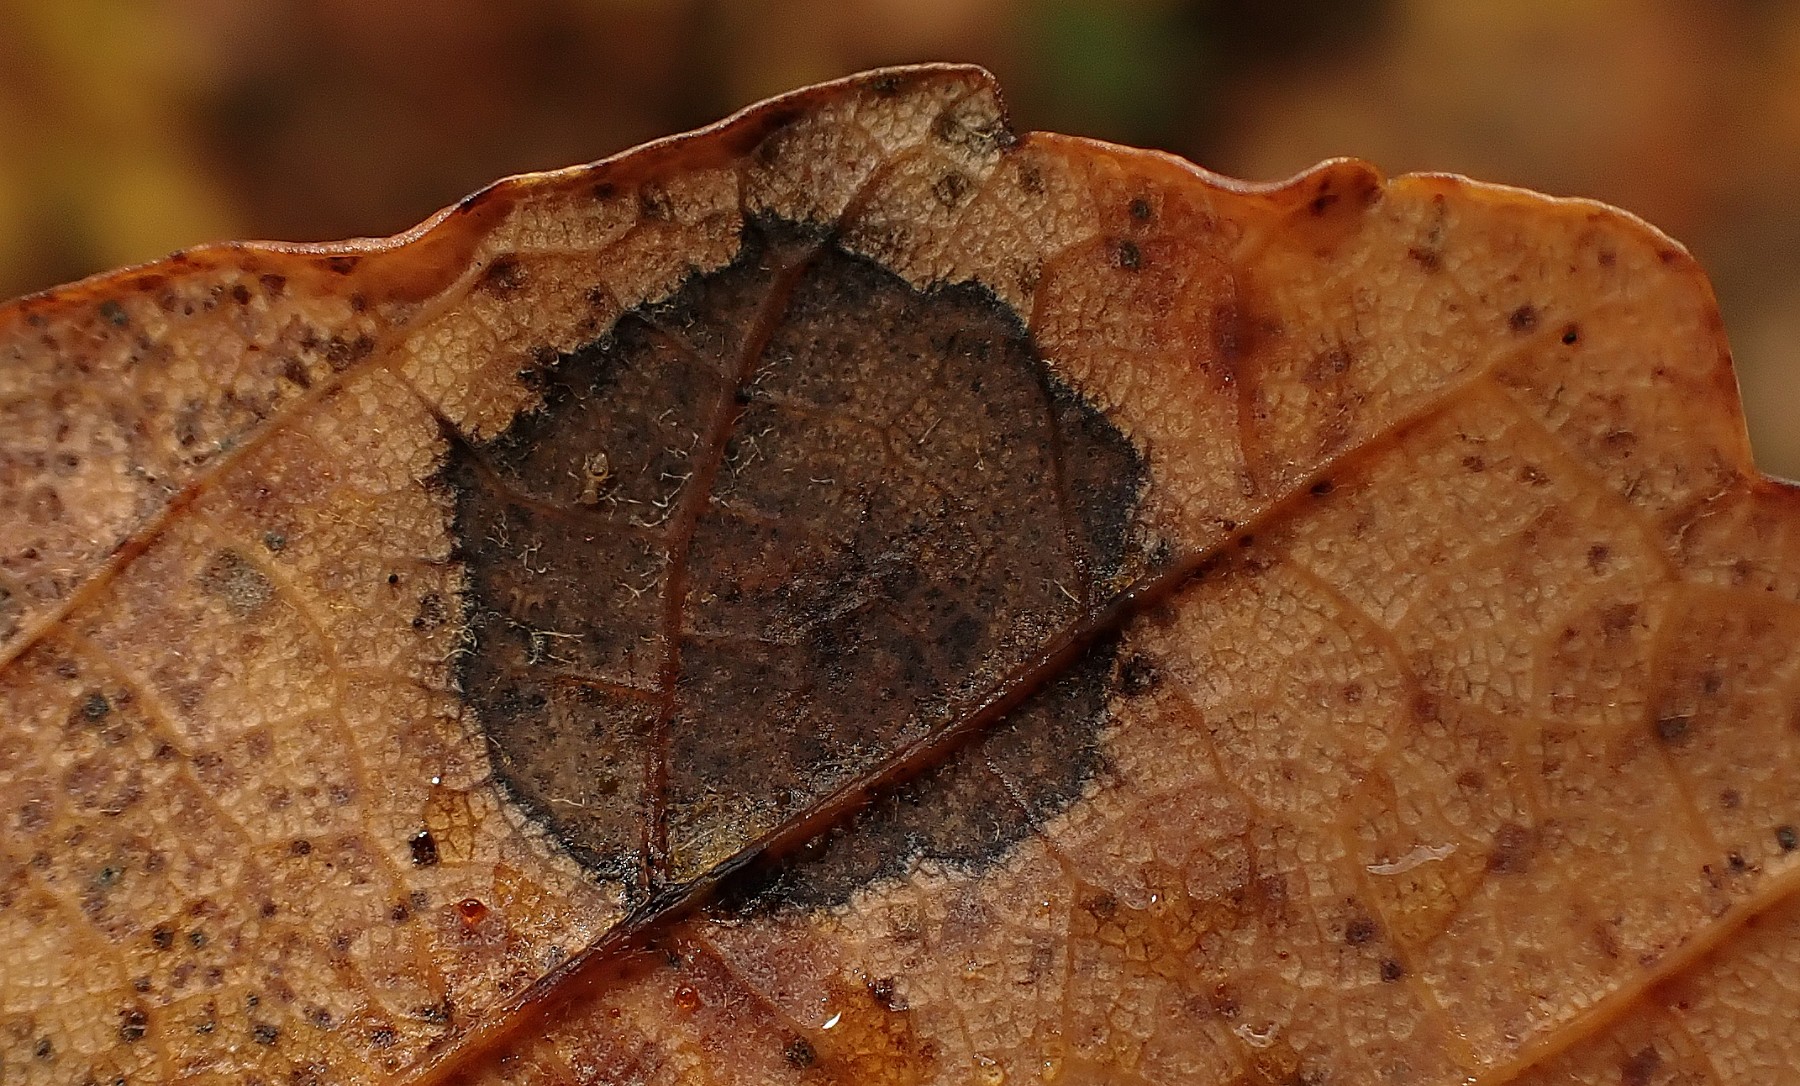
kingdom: Fungi
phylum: Ascomycota
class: Leotiomycetes
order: Rhytismatales
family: Rhytismataceae
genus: Rhytisma
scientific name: Rhytisma acerinum
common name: ahorn-rynkeplet
